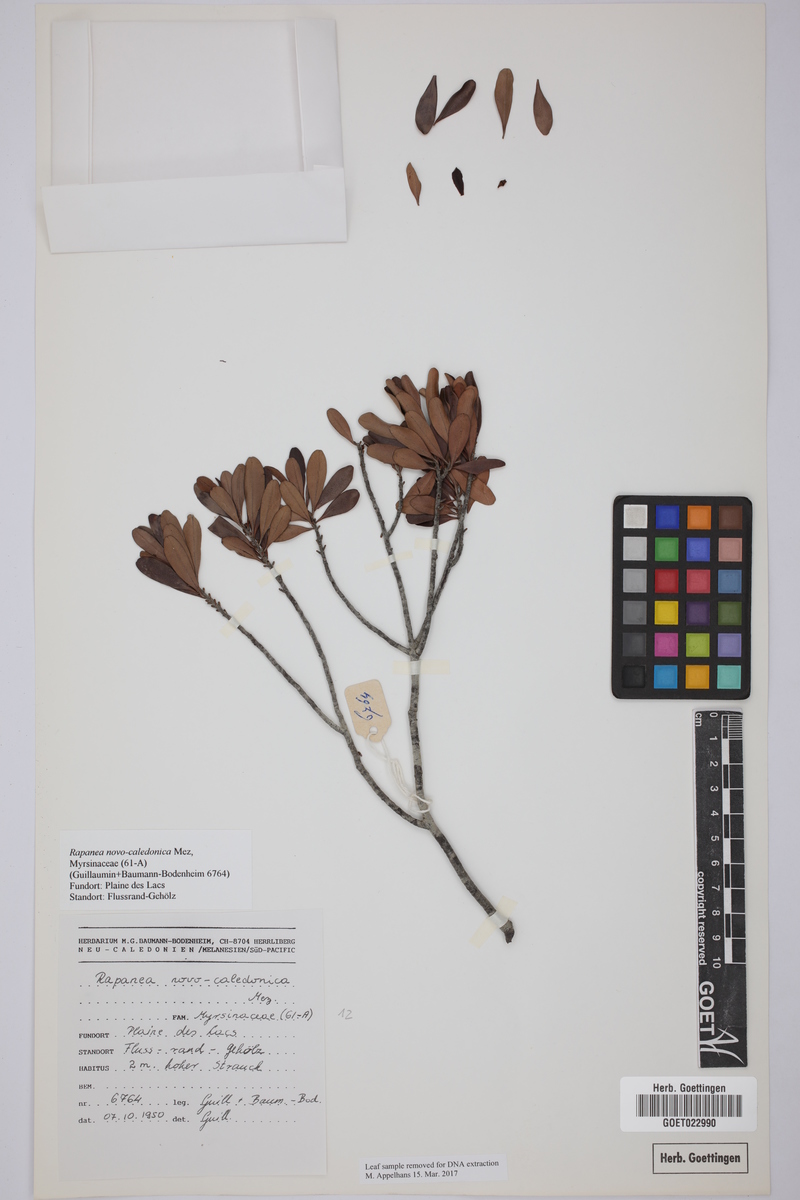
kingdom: Plantae
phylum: Tracheophyta
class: Magnoliopsida
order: Ericales
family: Primulaceae
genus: Myrsine
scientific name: Myrsine novocaledonica
